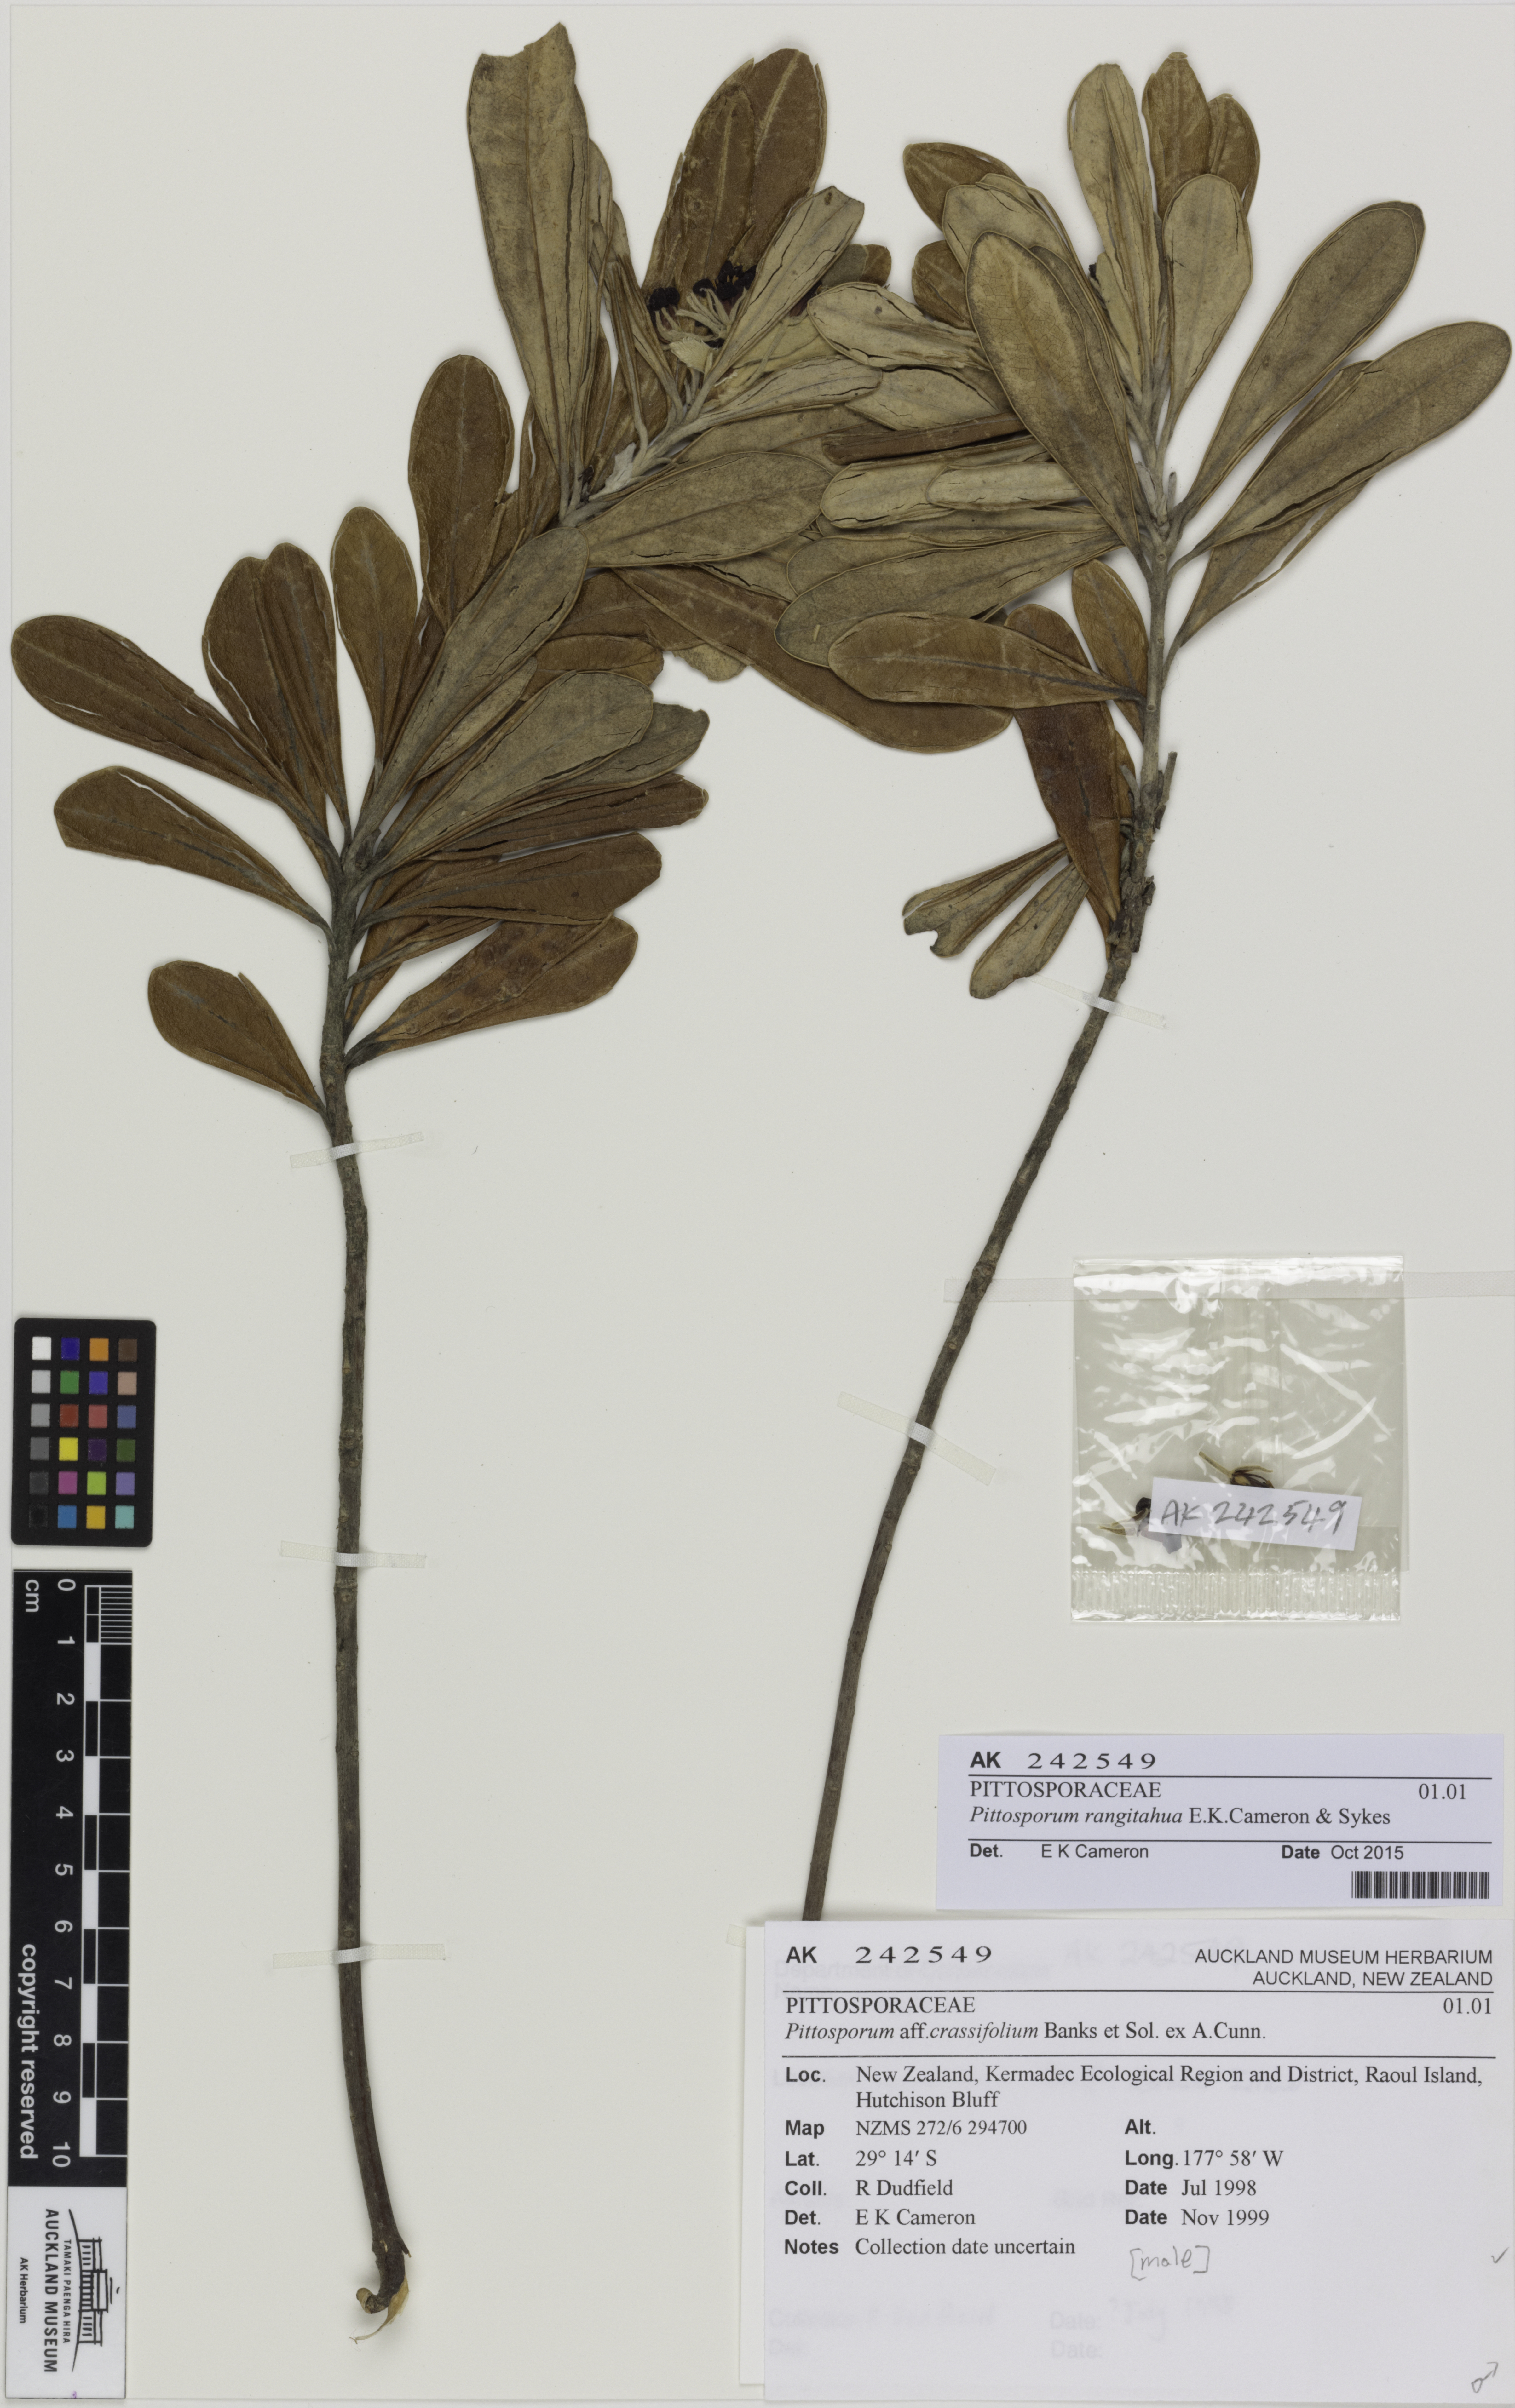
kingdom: Plantae
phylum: Tracheophyta
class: Magnoliopsida
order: Apiales
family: Pittosporaceae
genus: Pittosporum
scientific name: Pittosporum rangitahua
